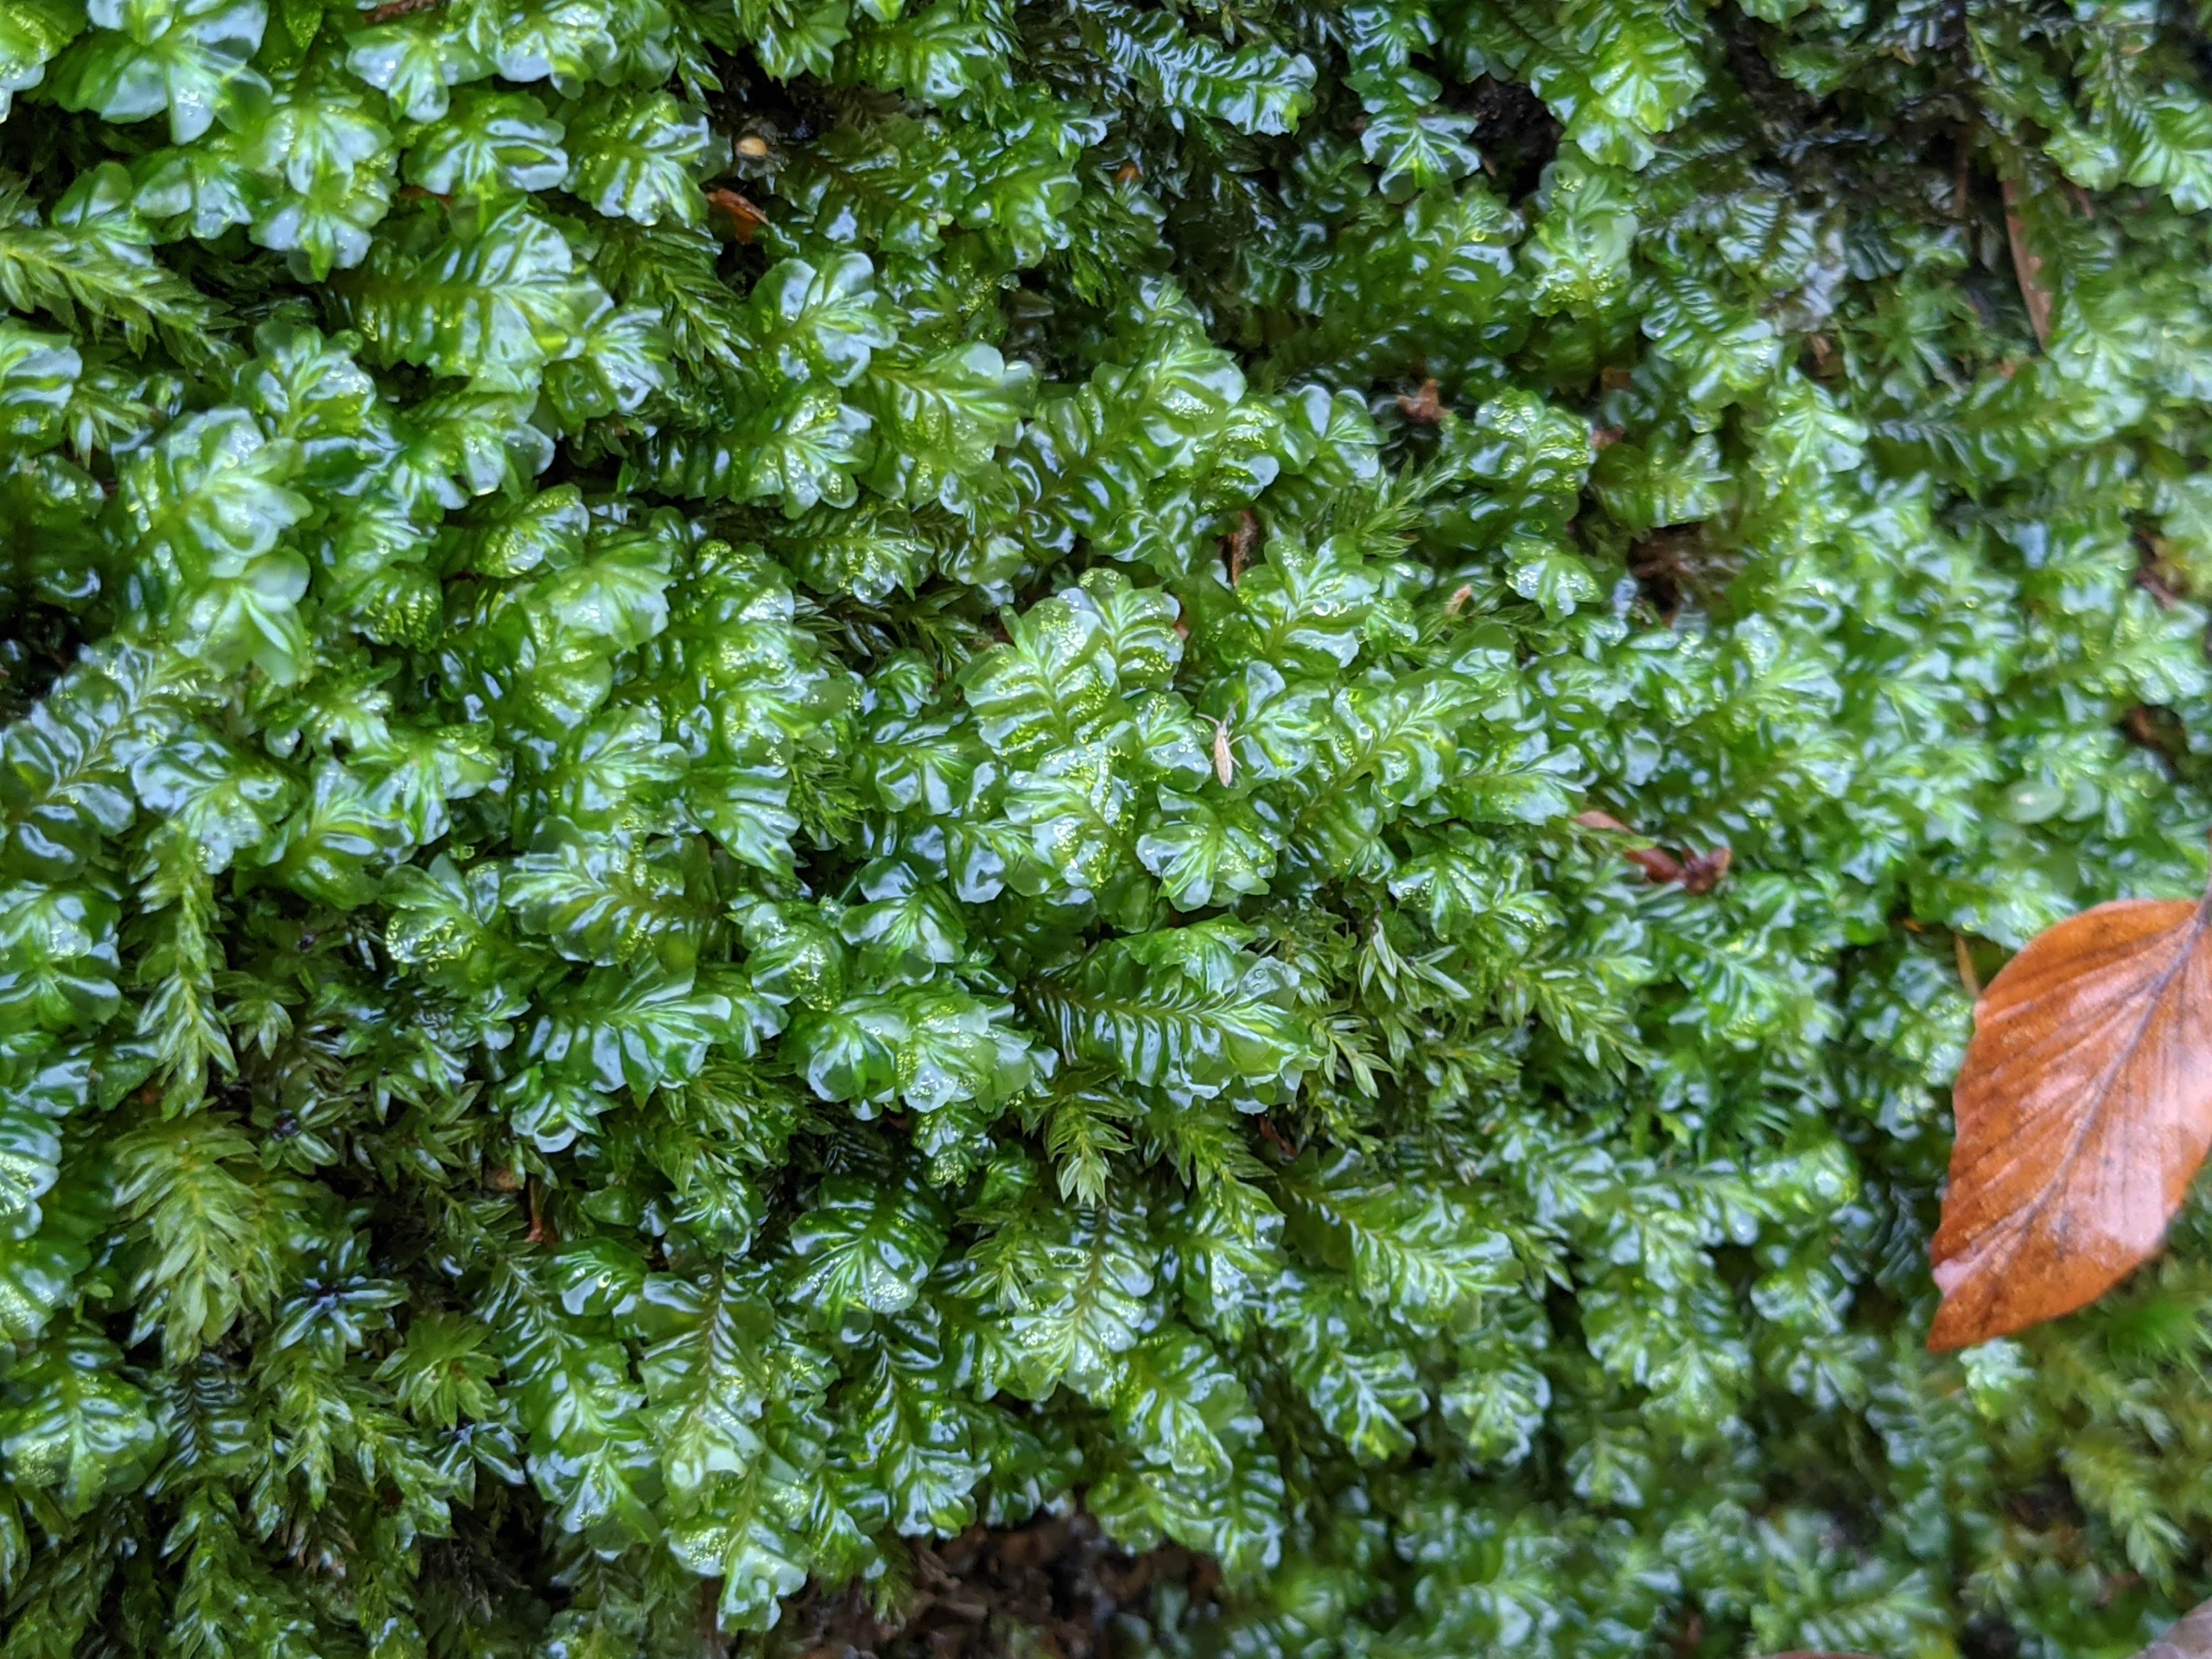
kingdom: Plantae
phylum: Marchantiophyta
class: Jungermanniopsida
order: Jungermanniales
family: Plagiochilaceae
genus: Plagiochila
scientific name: Plagiochila asplenioides
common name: Radeløv-hindeblad
